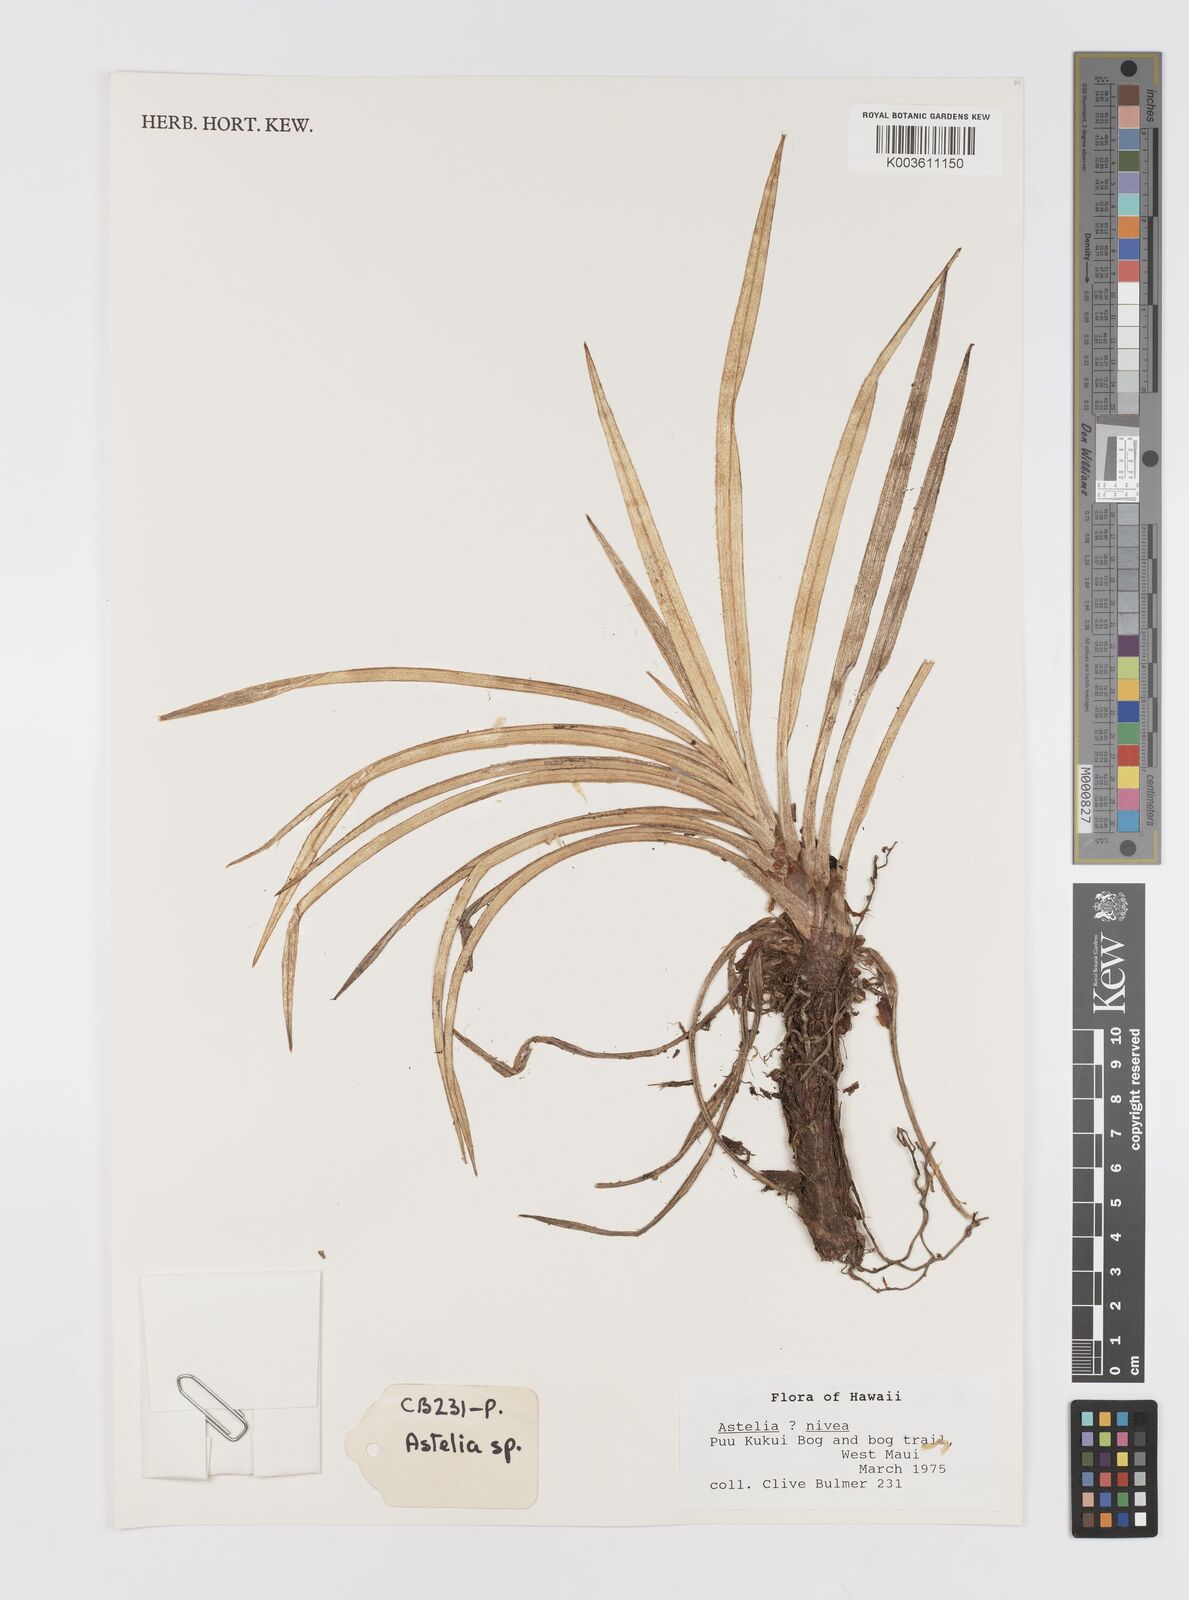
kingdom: Plantae
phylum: Tracheophyta
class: Liliopsida
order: Asparagales
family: Asteliaceae
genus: Astelia
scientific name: Astelia waialealae
